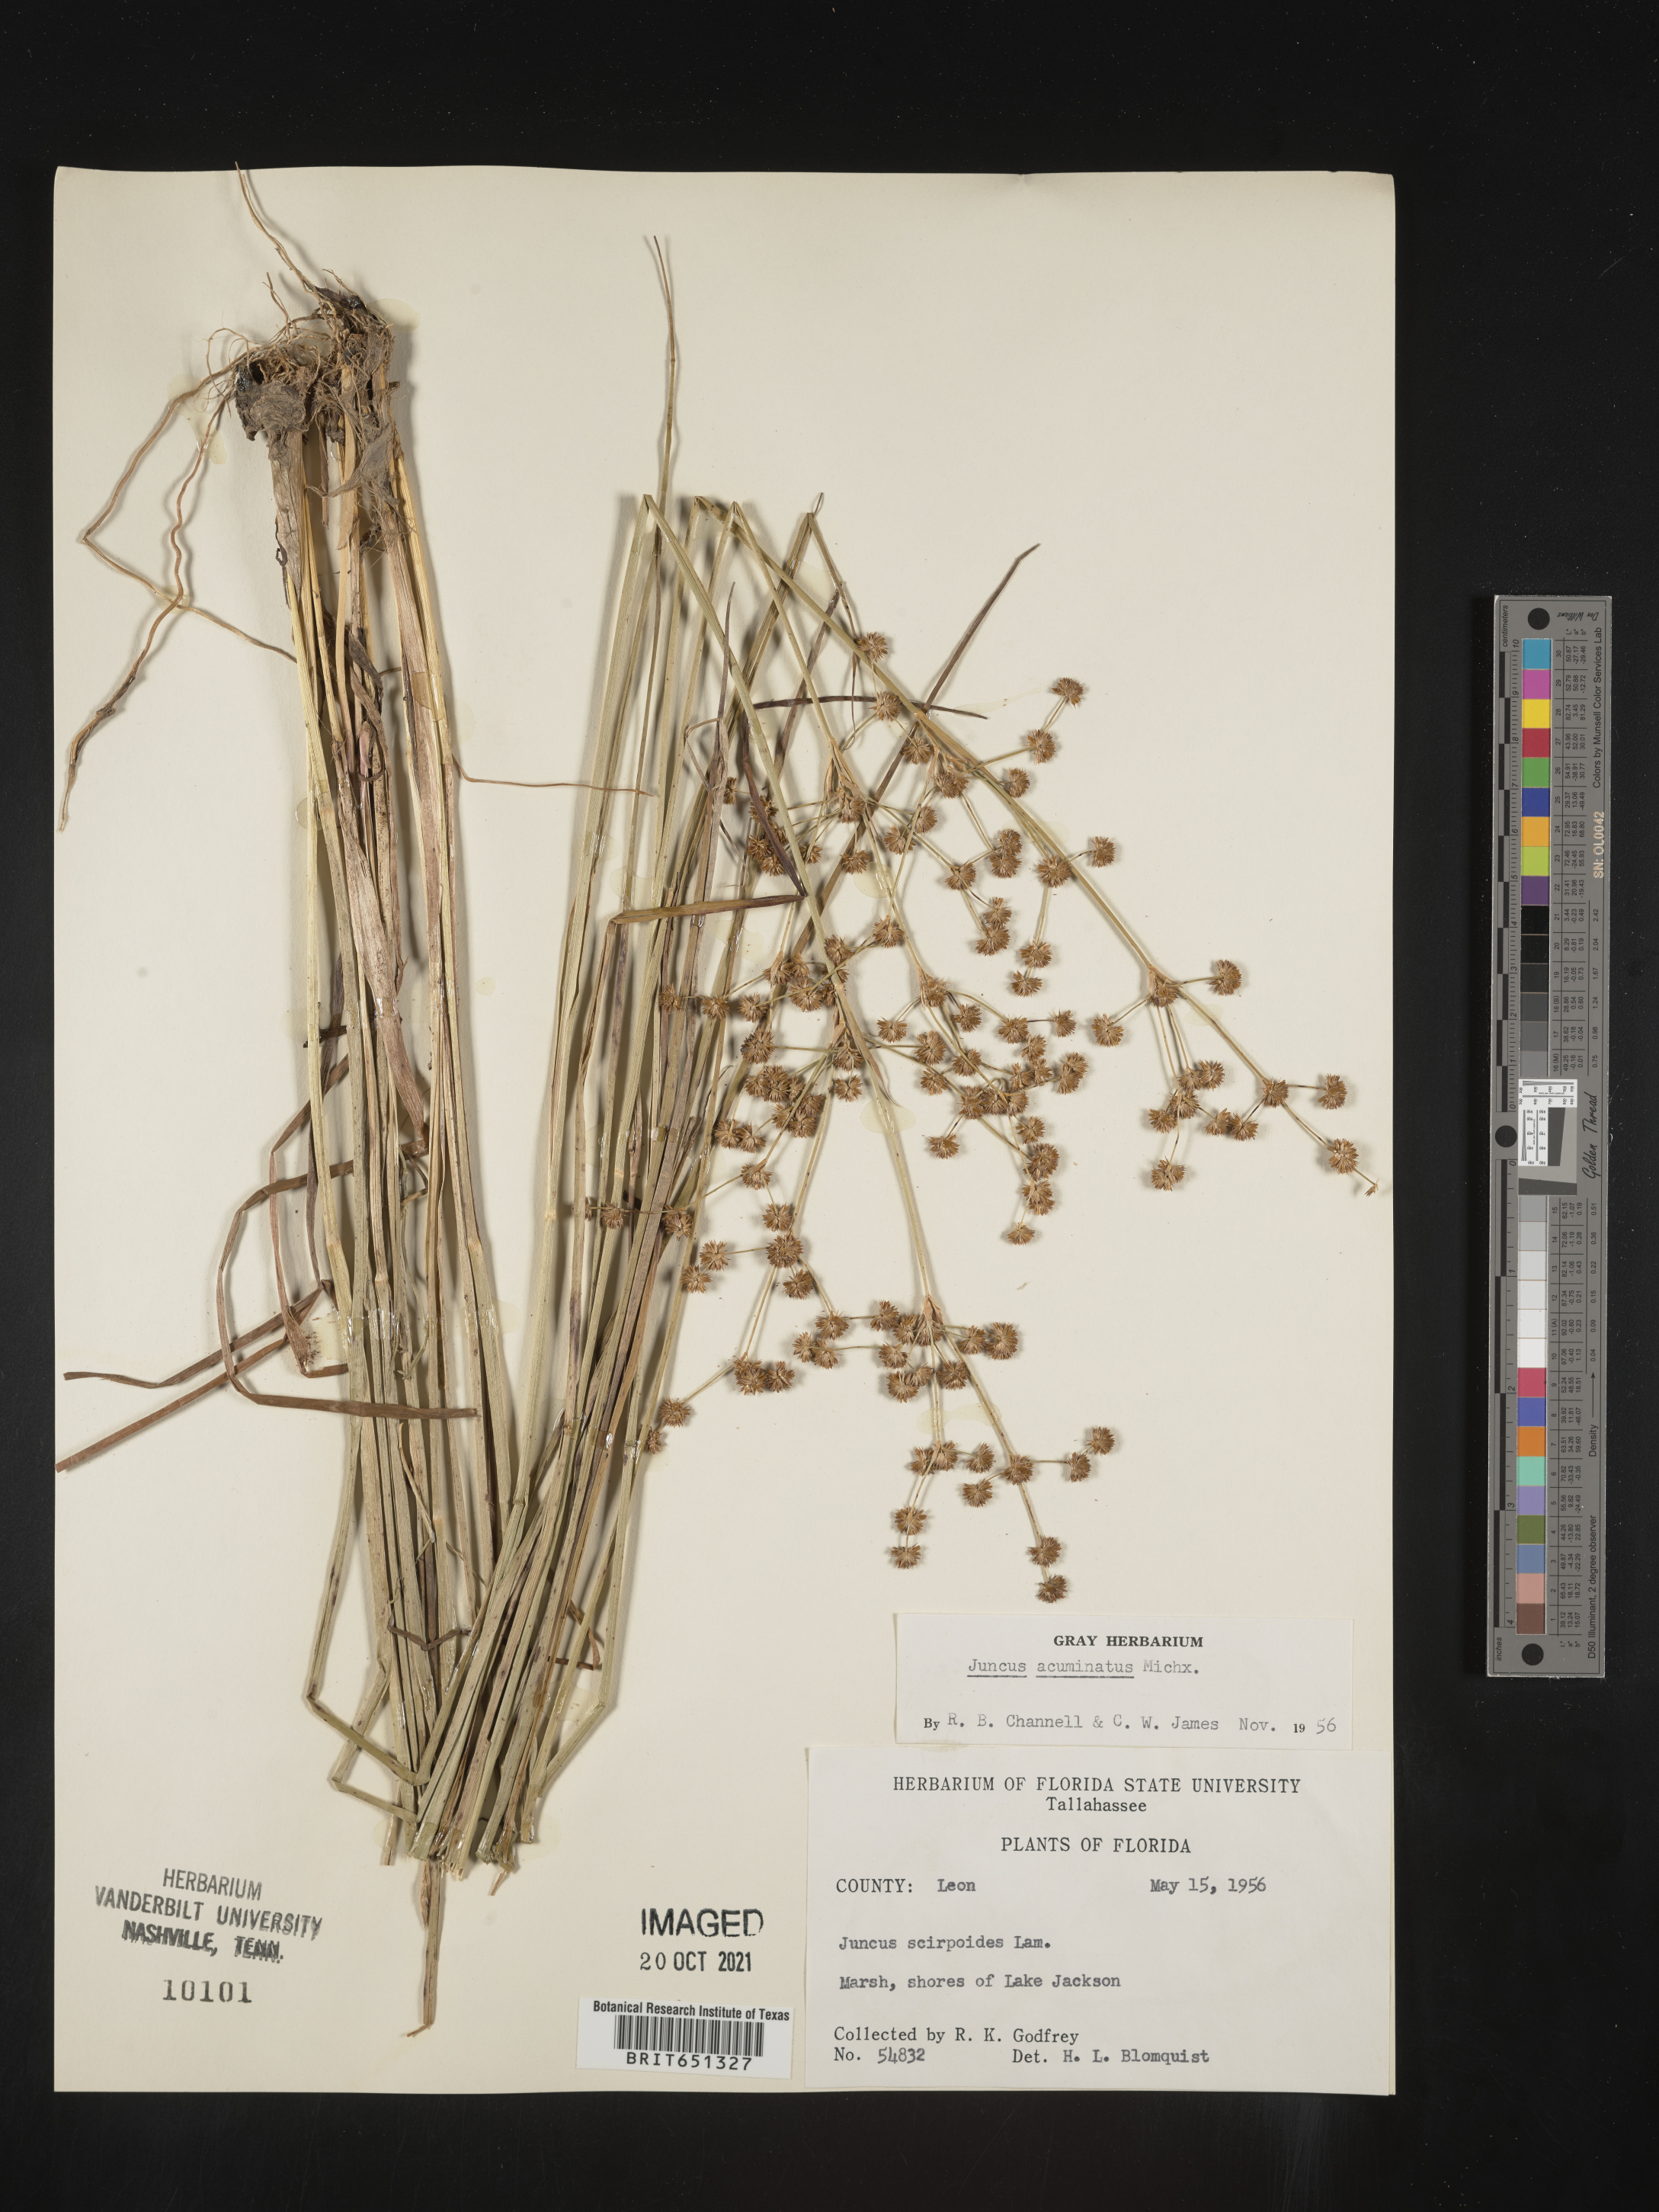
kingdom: Plantae
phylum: Tracheophyta
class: Liliopsida
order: Poales
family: Juncaceae
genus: Juncus
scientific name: Juncus acuminatus
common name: Knotty-leaved rush
